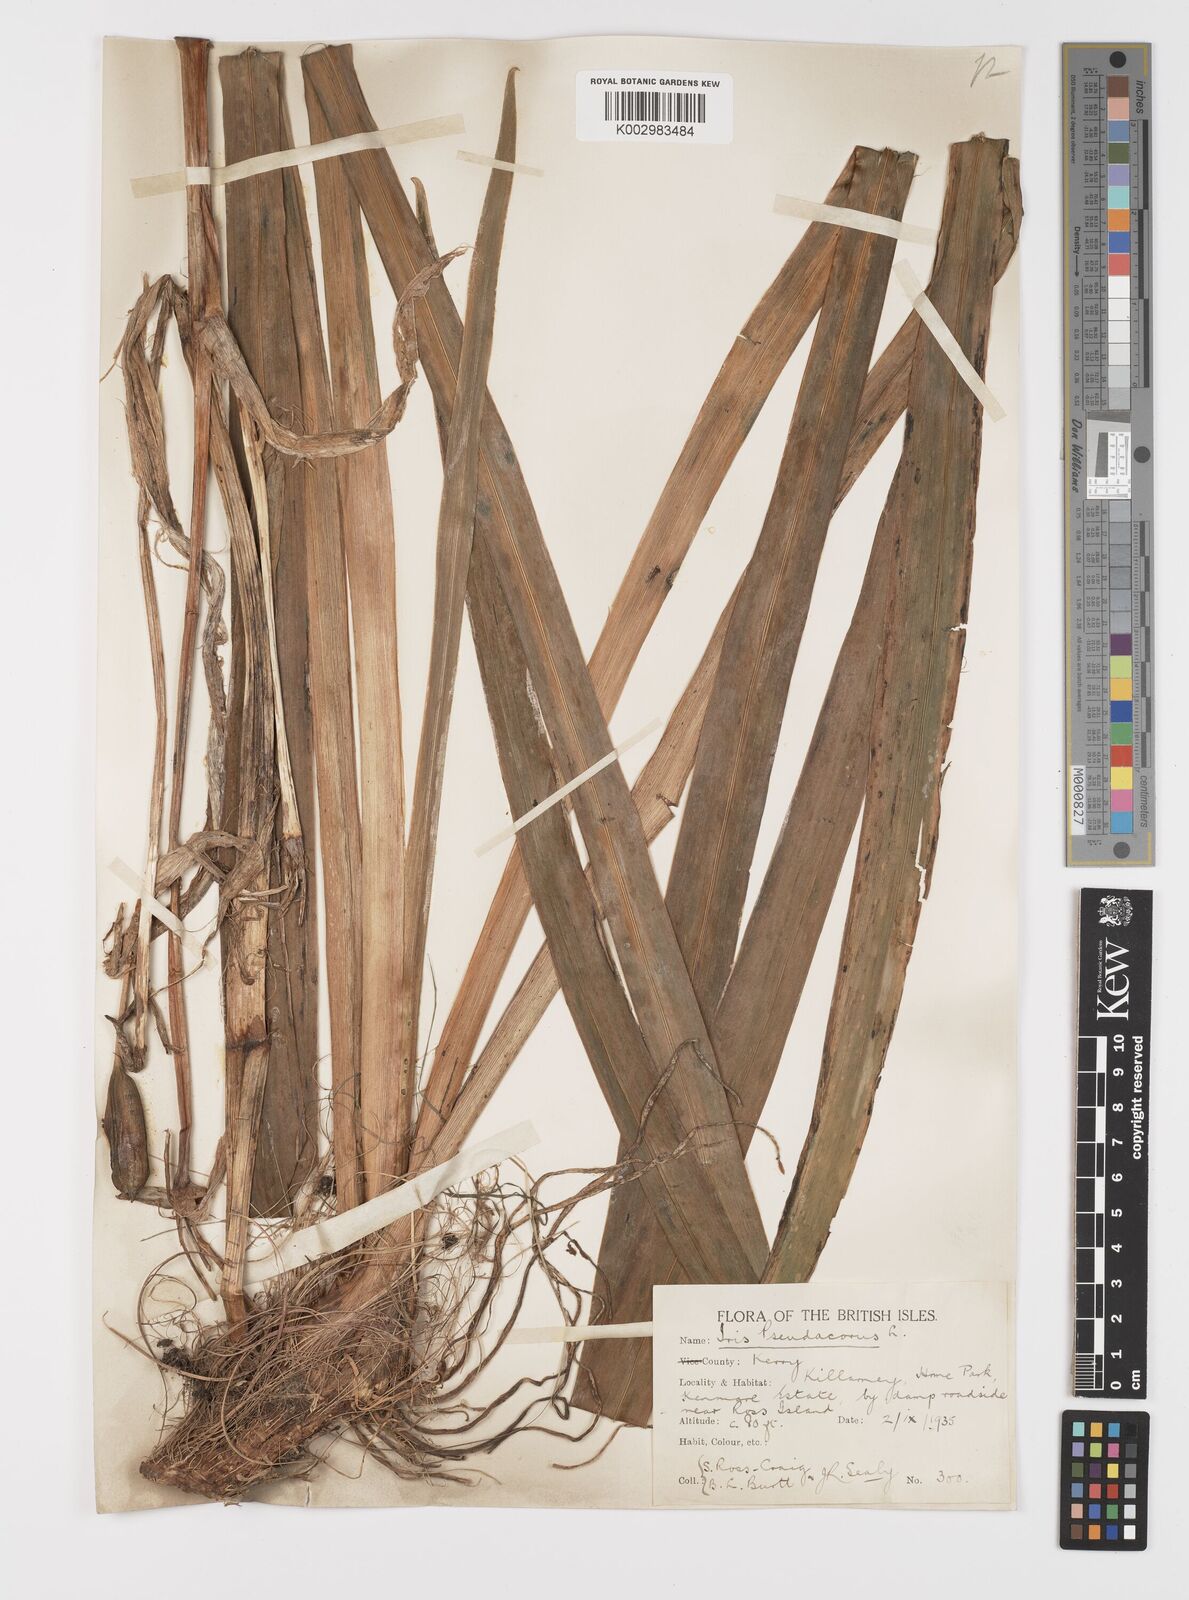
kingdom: Plantae
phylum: Tracheophyta
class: Liliopsida
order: Asparagales
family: Iridaceae
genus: Iris
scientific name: Iris pseudacorus
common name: Yellow flag
